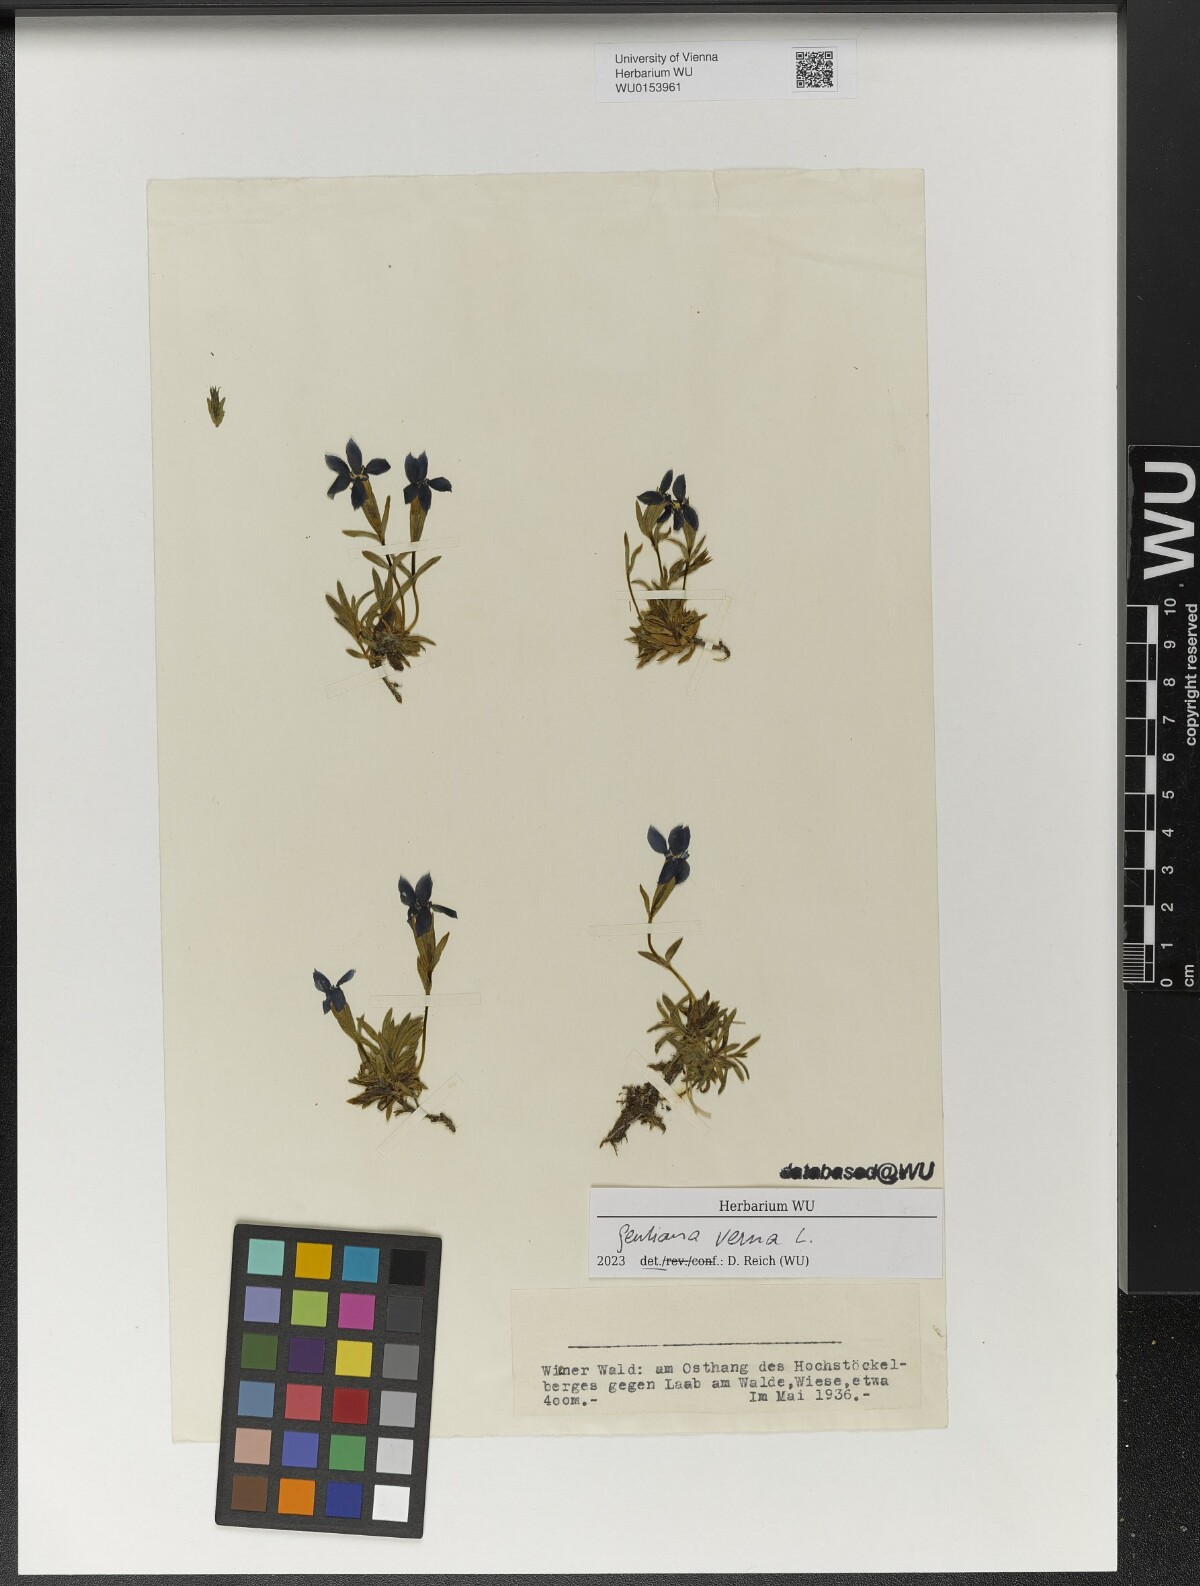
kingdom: Plantae
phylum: Tracheophyta
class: Magnoliopsida
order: Gentianales
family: Gentianaceae
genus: Gentiana
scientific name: Gentiana verna
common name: Spring gentian
